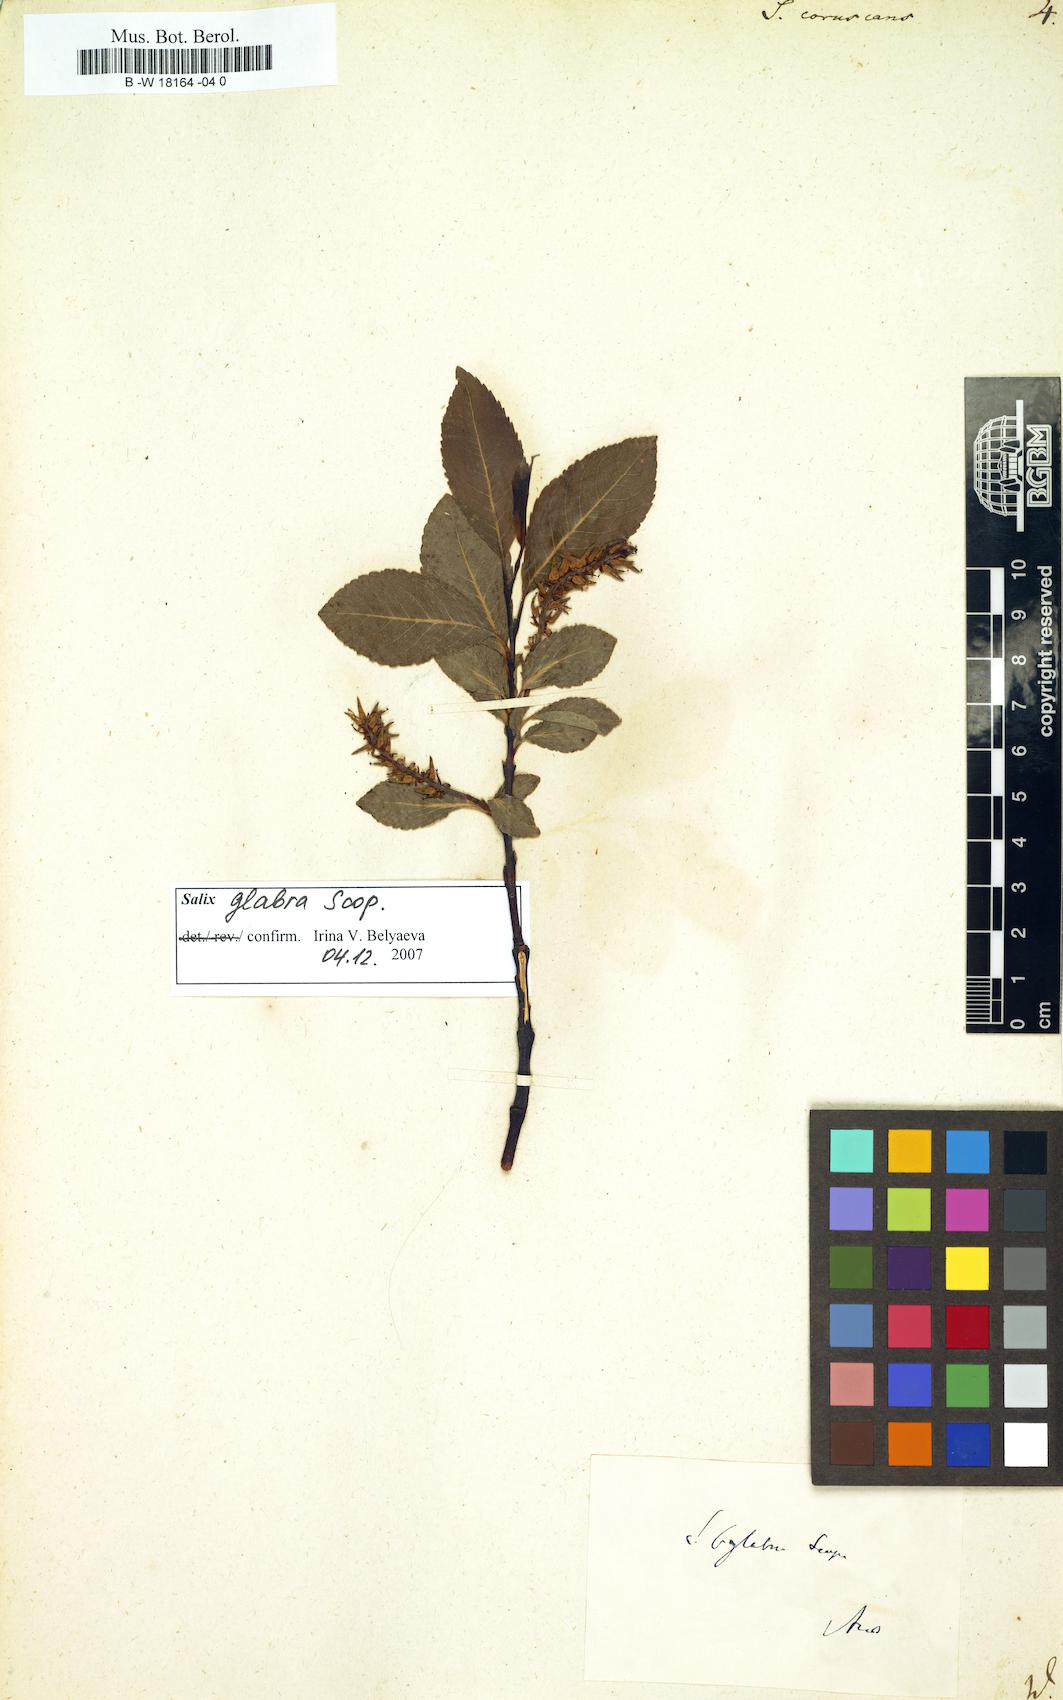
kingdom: Plantae
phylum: Tracheophyta
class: Magnoliopsida
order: Malpighiales
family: Salicaceae
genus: Salix
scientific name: Salix
